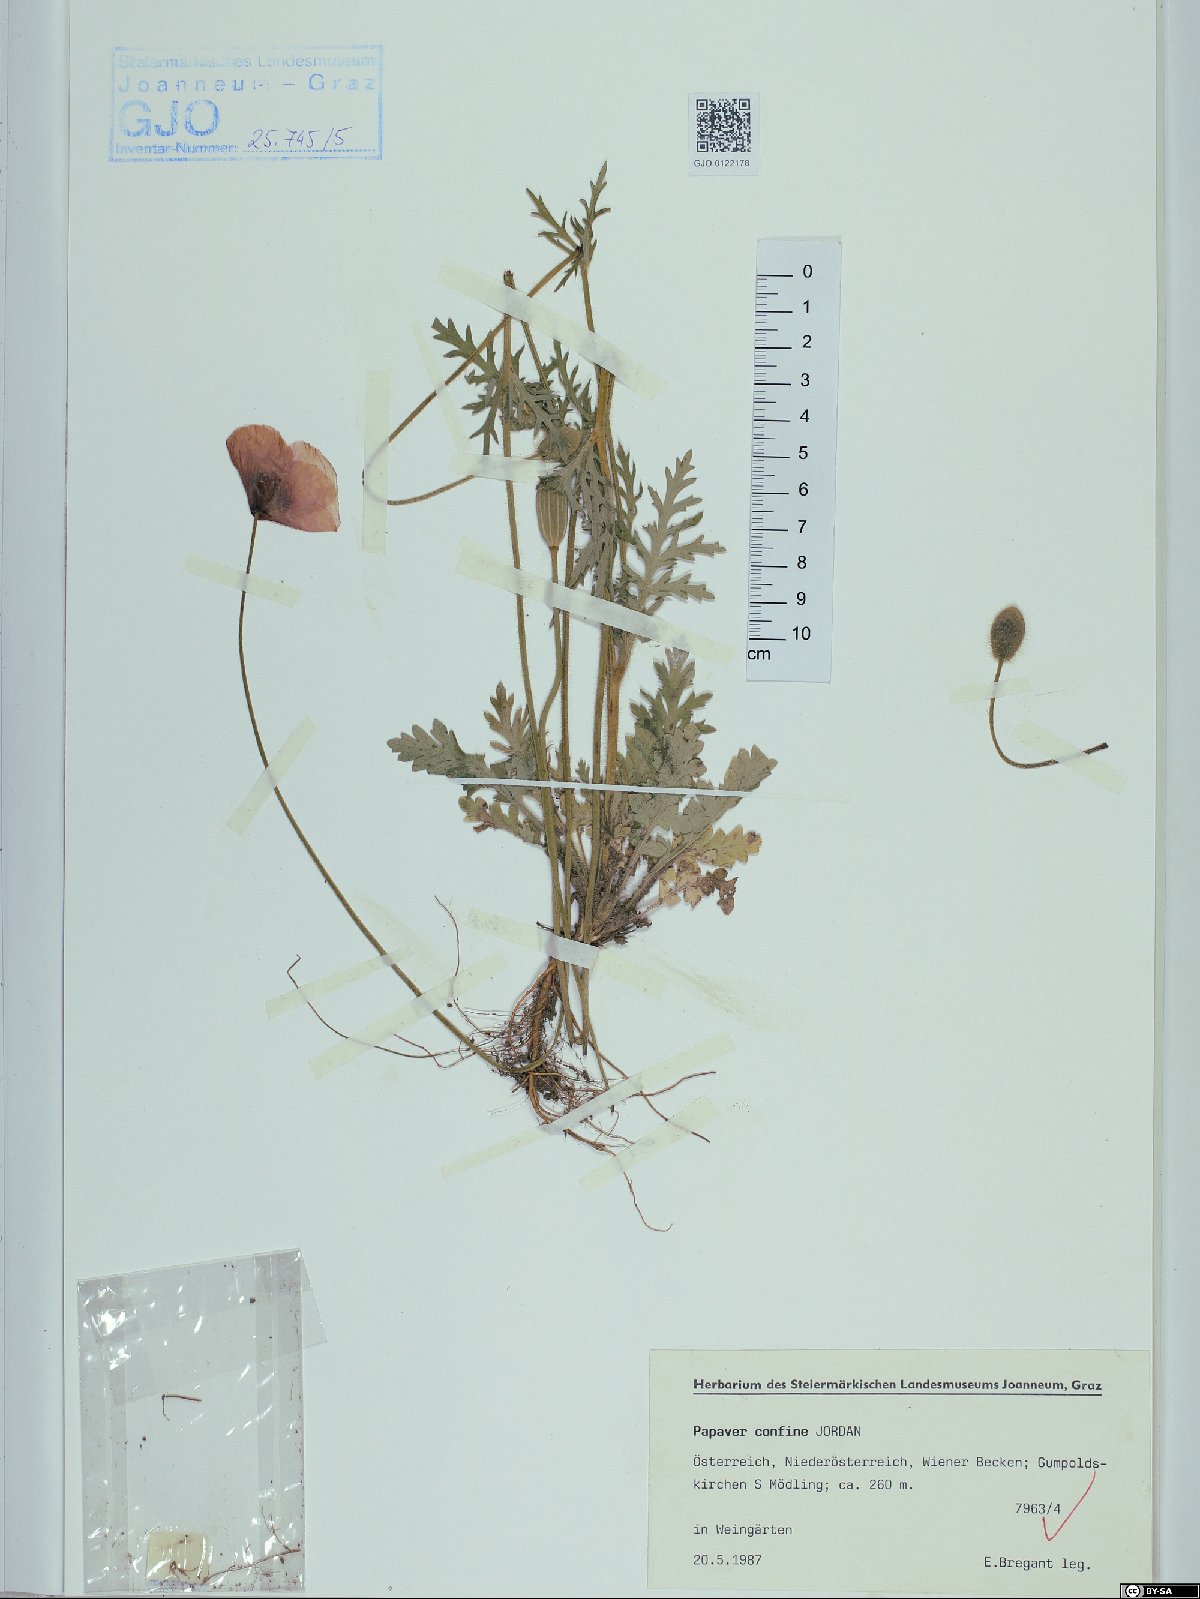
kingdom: Plantae
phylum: Tracheophyta
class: Magnoliopsida
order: Ranunculales
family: Papaveraceae
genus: Papaver
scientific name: Papaver confine
